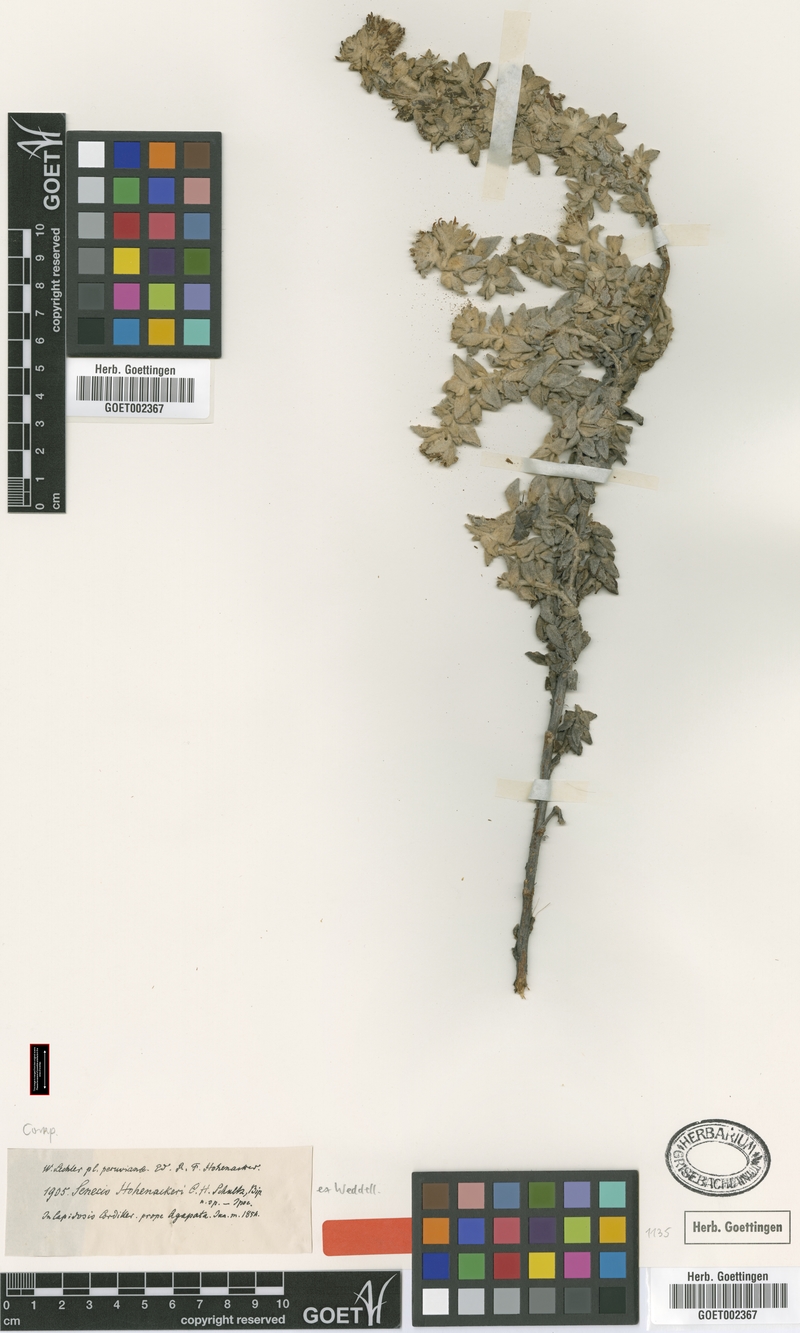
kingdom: Plantae
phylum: Tracheophyta
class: Magnoliopsida
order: Asterales
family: Asteraceae
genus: Senecio
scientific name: Senecio hohenacke
